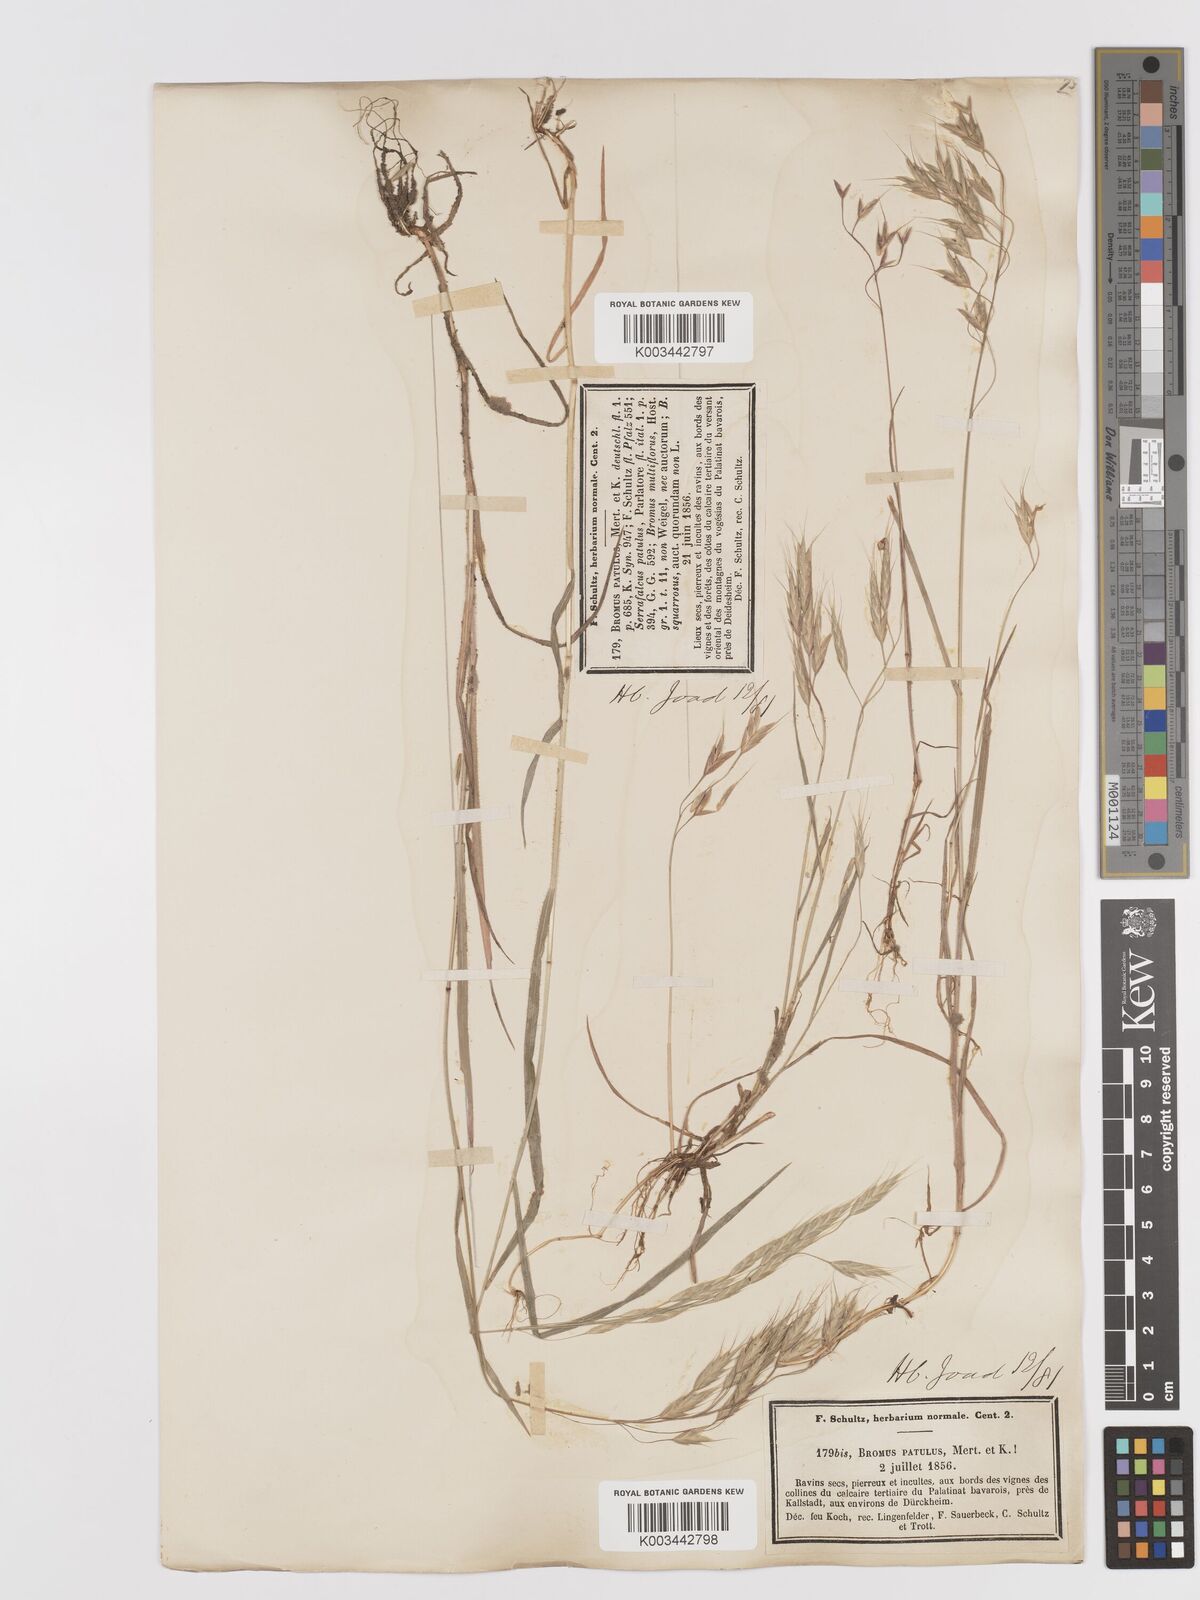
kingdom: Plantae
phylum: Tracheophyta
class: Liliopsida
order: Poales
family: Poaceae
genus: Bromus
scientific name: Bromus japonicus
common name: Japanese brome
